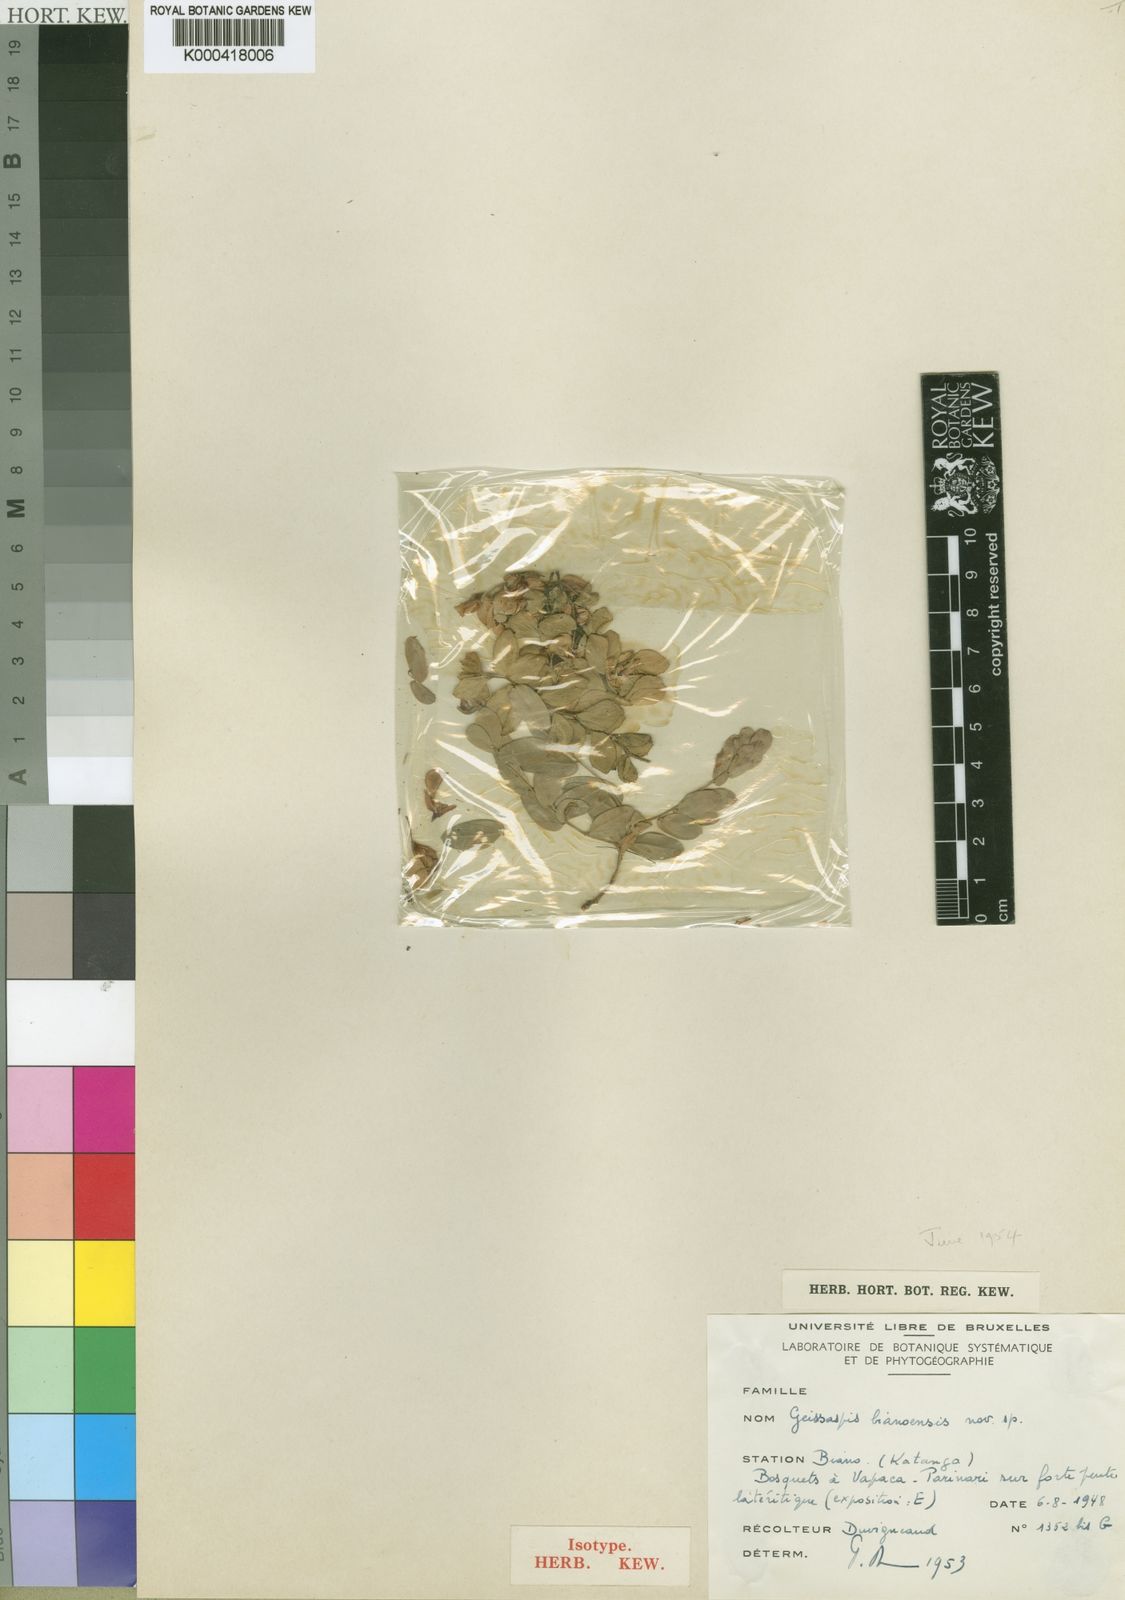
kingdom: Plantae
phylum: Tracheophyta
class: Magnoliopsida
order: Fabales
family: Fabaceae
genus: Aeschynomene
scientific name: Aeschynomene
